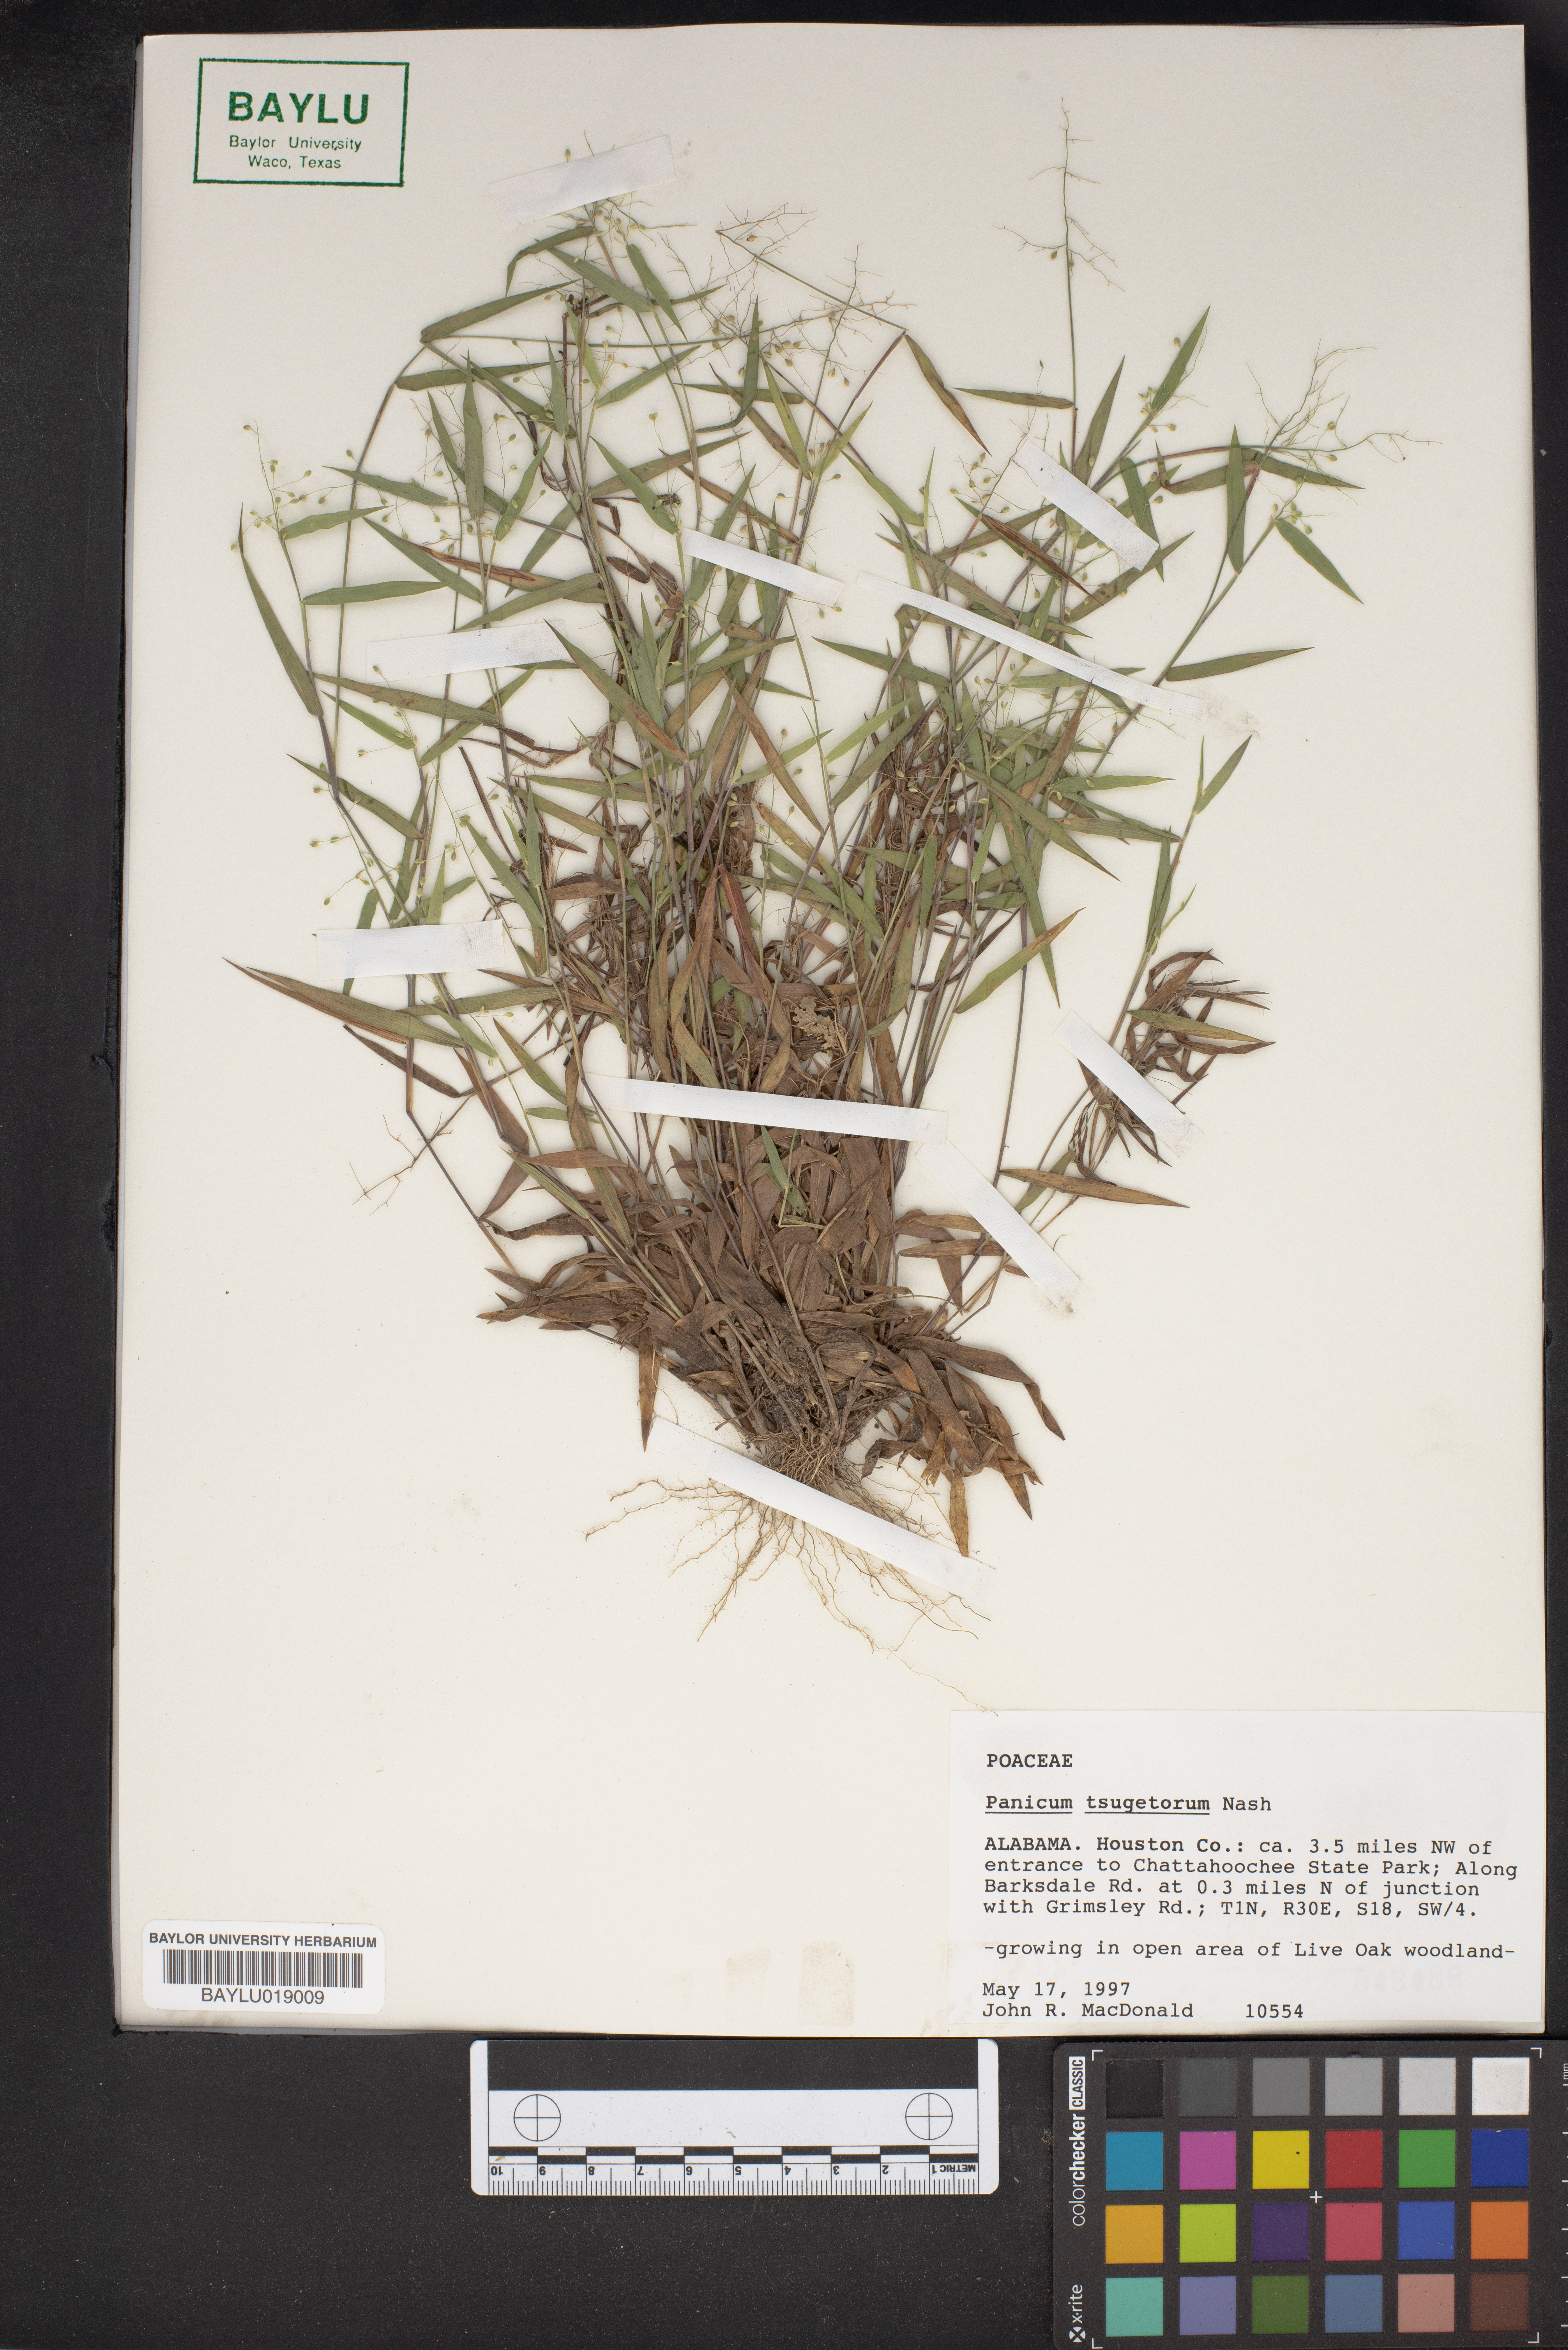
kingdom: Plantae
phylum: Tracheophyta
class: Liliopsida
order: Poales
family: Poaceae
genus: Dichanthelium
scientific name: Dichanthelium columbianum
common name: Hemlock panic grass
